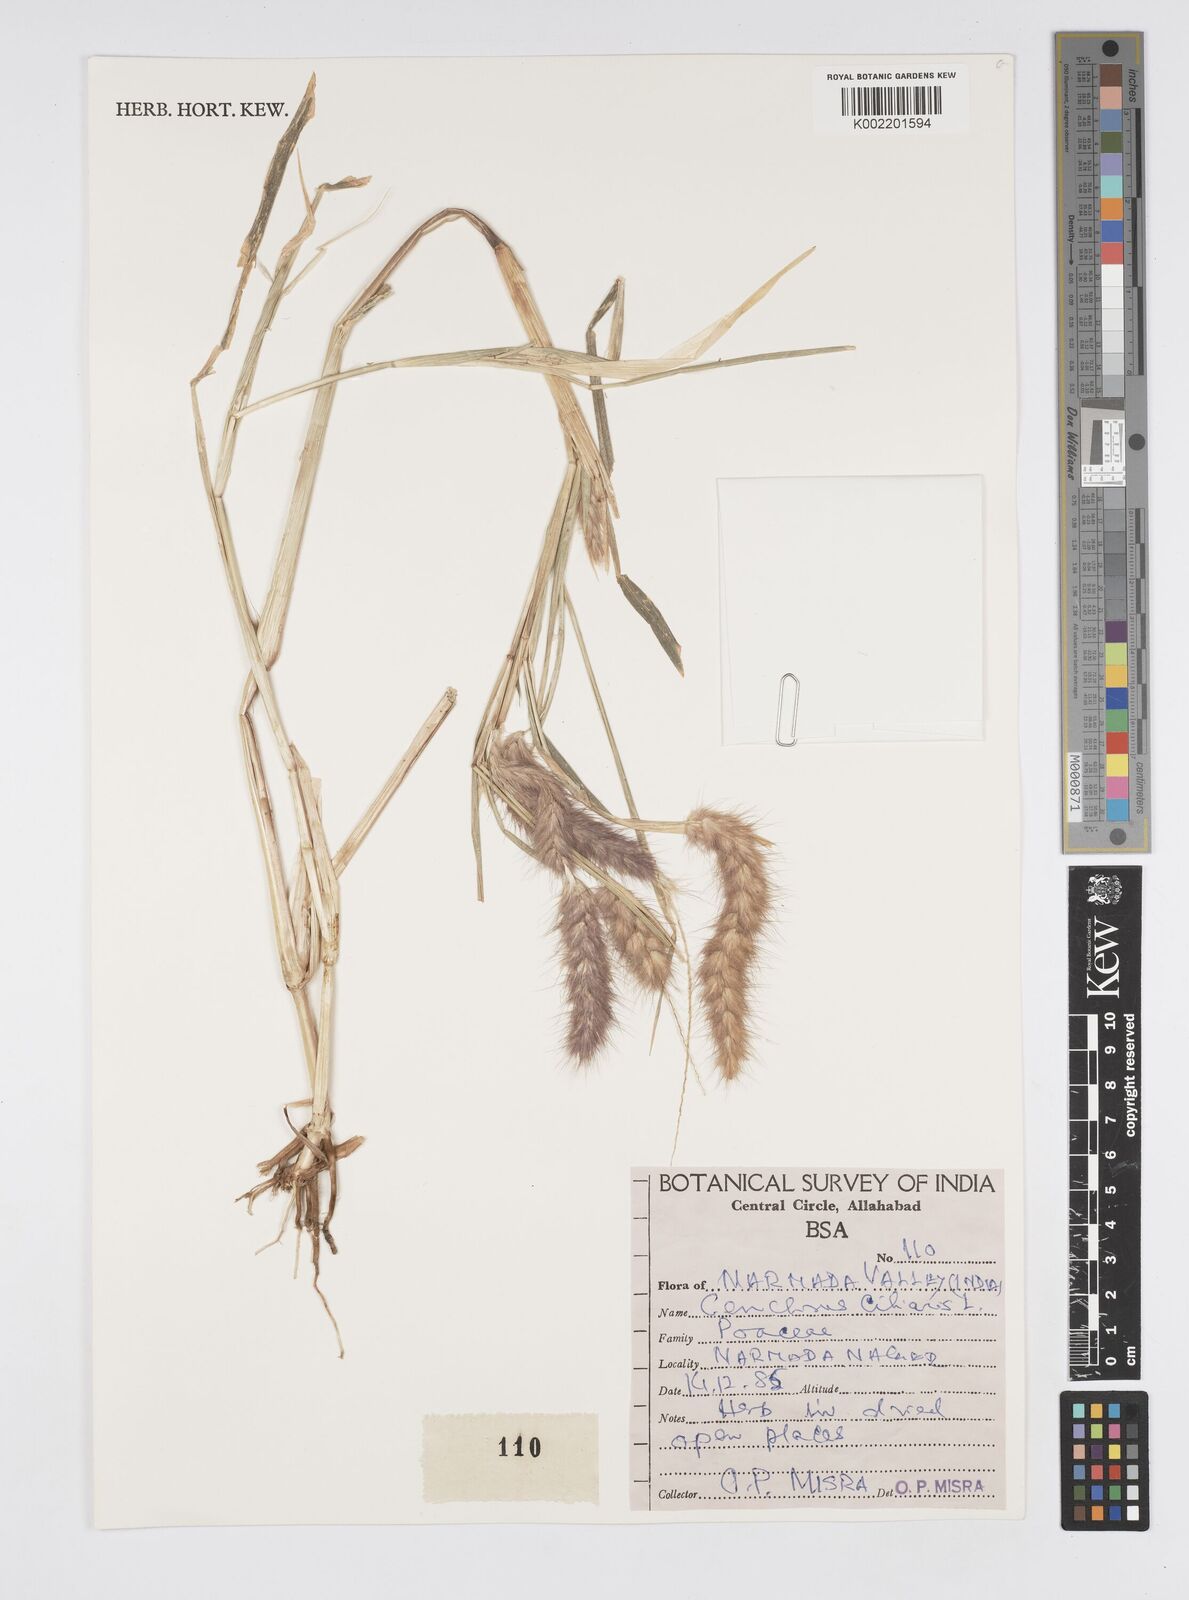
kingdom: Plantae
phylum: Tracheophyta
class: Liliopsida
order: Poales
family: Poaceae
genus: Cenchrus
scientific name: Cenchrus pedicellatus
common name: Hairy fountain grass
